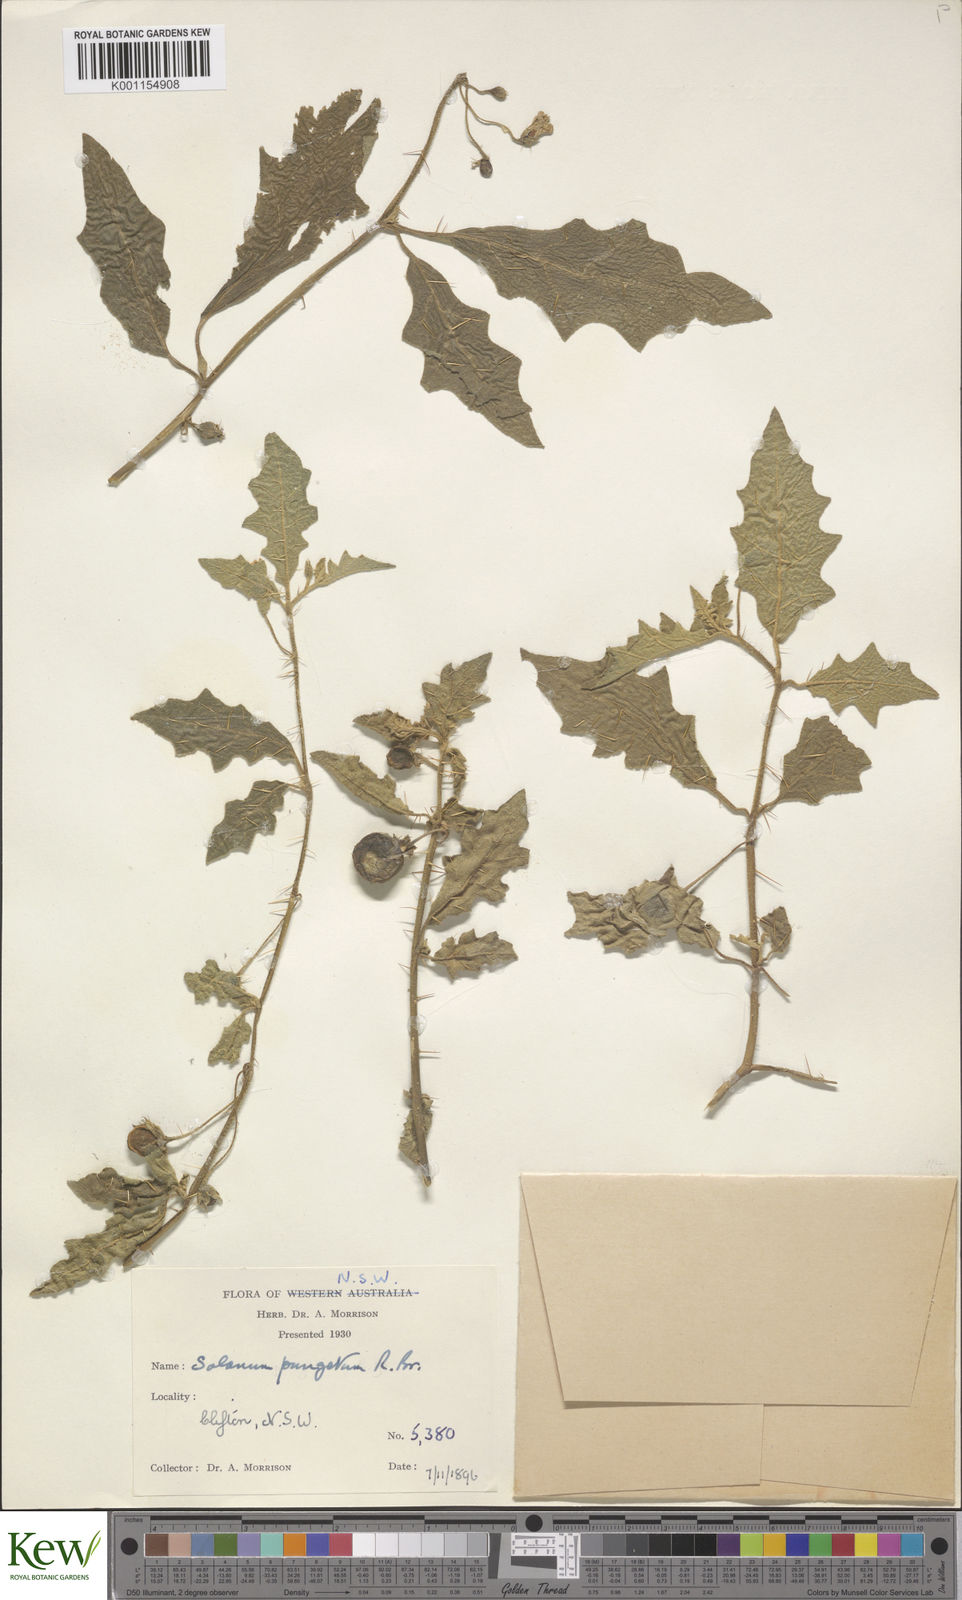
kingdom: Plantae
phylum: Tracheophyta
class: Magnoliopsida
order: Solanales
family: Solanaceae
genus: Solanum
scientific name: Solanum pungetium
